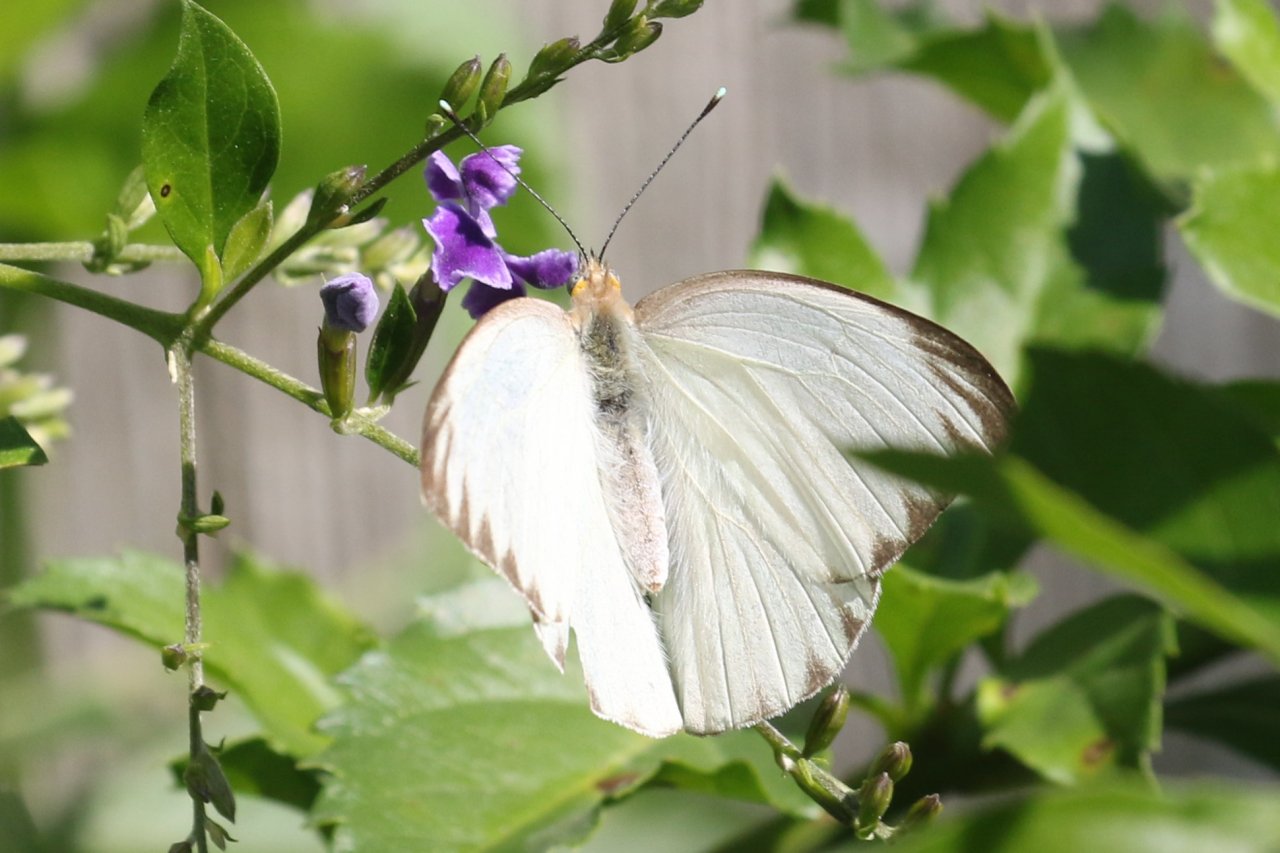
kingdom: Animalia
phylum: Arthropoda
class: Insecta
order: Lepidoptera
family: Pieridae
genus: Ascia
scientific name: Ascia monuste
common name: Great Southern White
